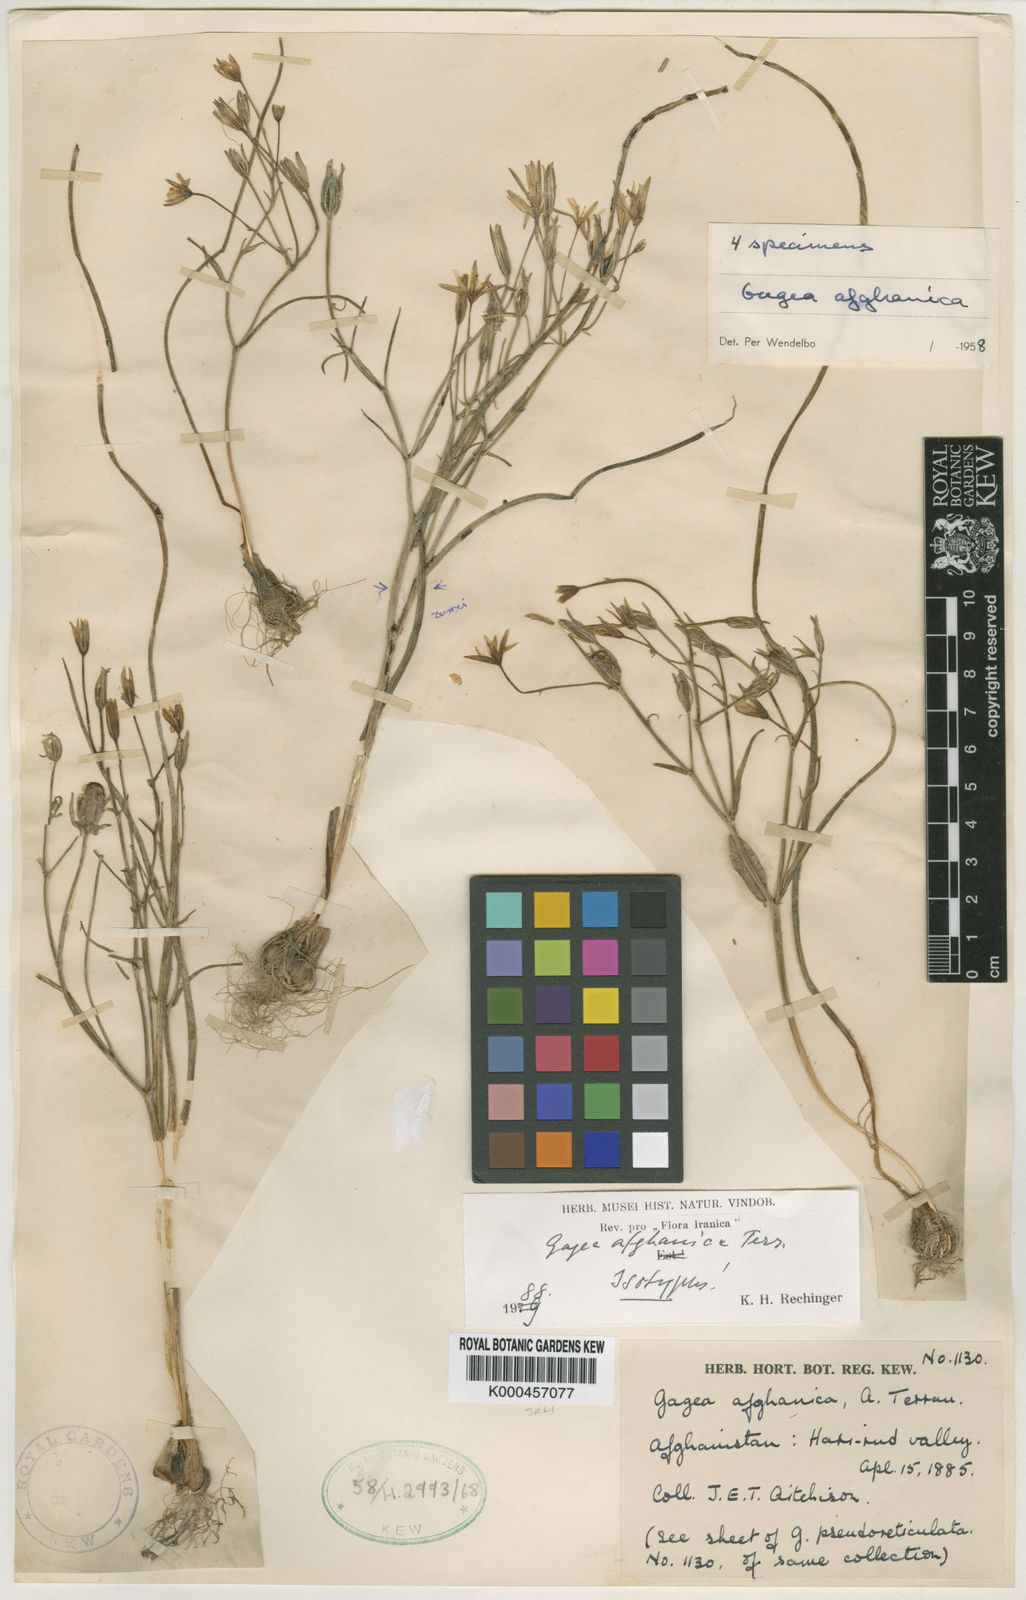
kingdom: Plantae
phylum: Tracheophyta
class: Liliopsida
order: Liliales
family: Liliaceae
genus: Gagea
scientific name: Gagea afghanica
